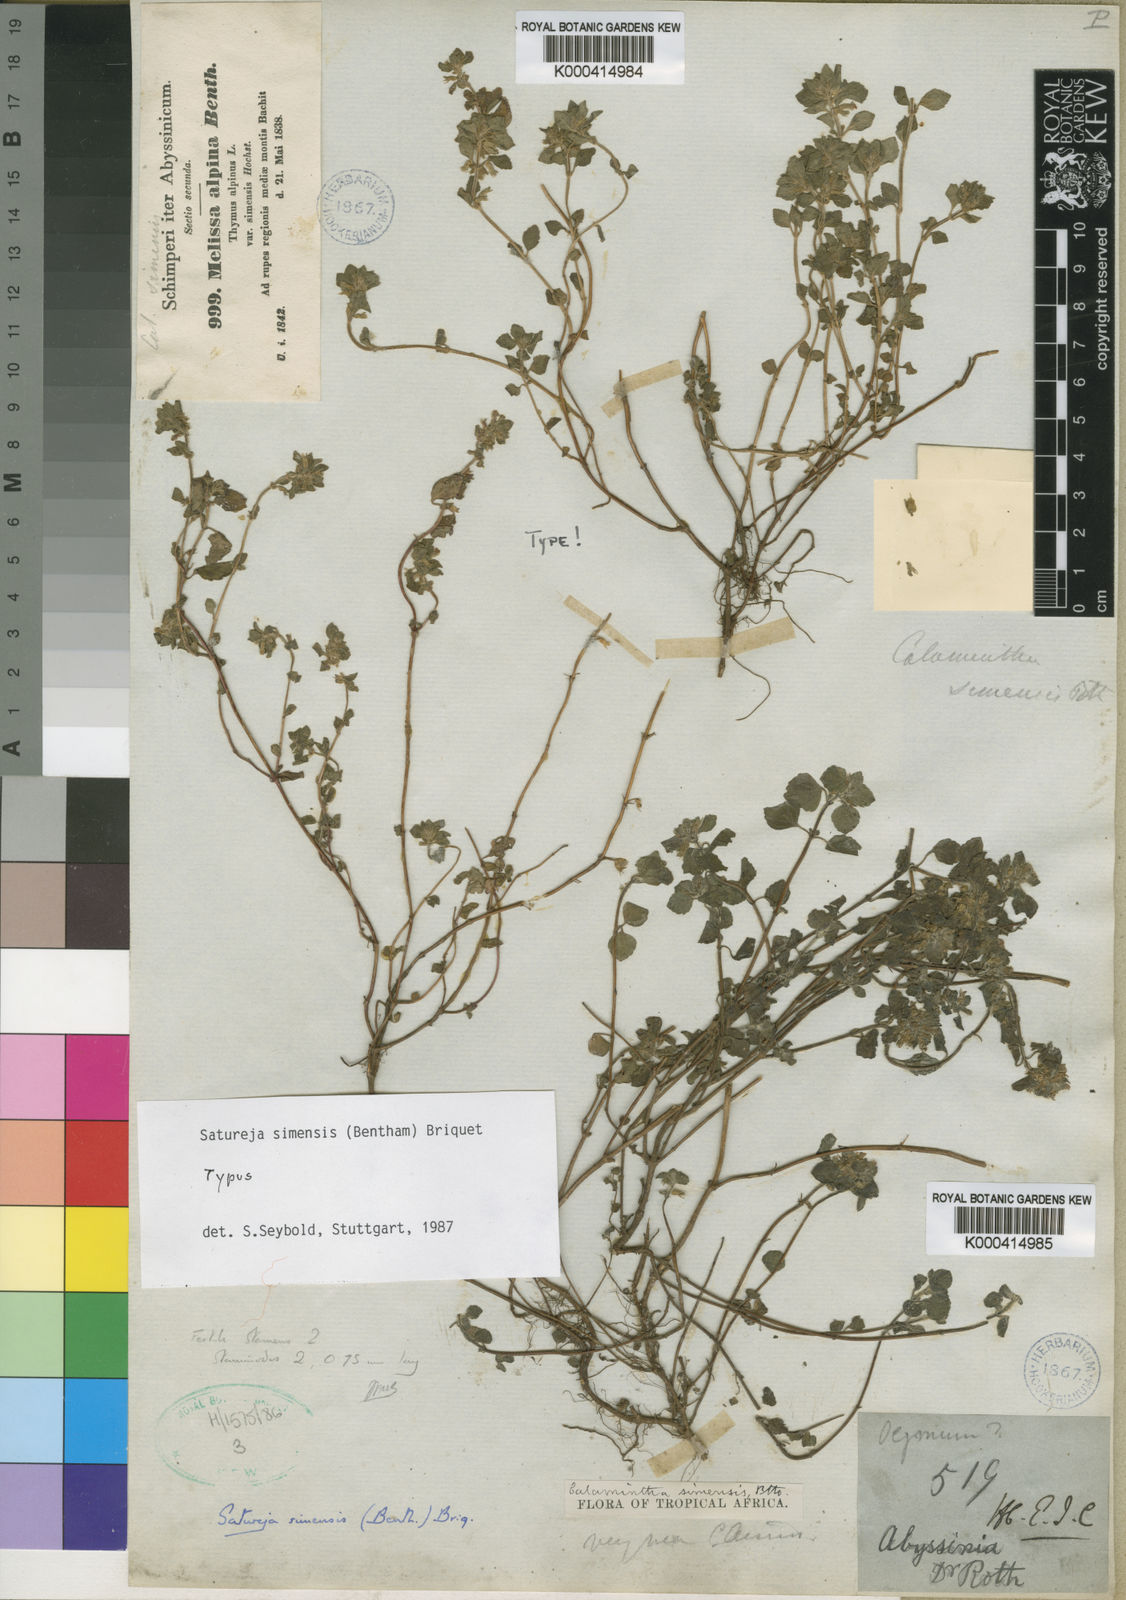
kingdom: Plantae
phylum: Tracheophyta
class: Magnoliopsida
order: Lamiales
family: Lamiaceae
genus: Clinopodium
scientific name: Clinopodium
